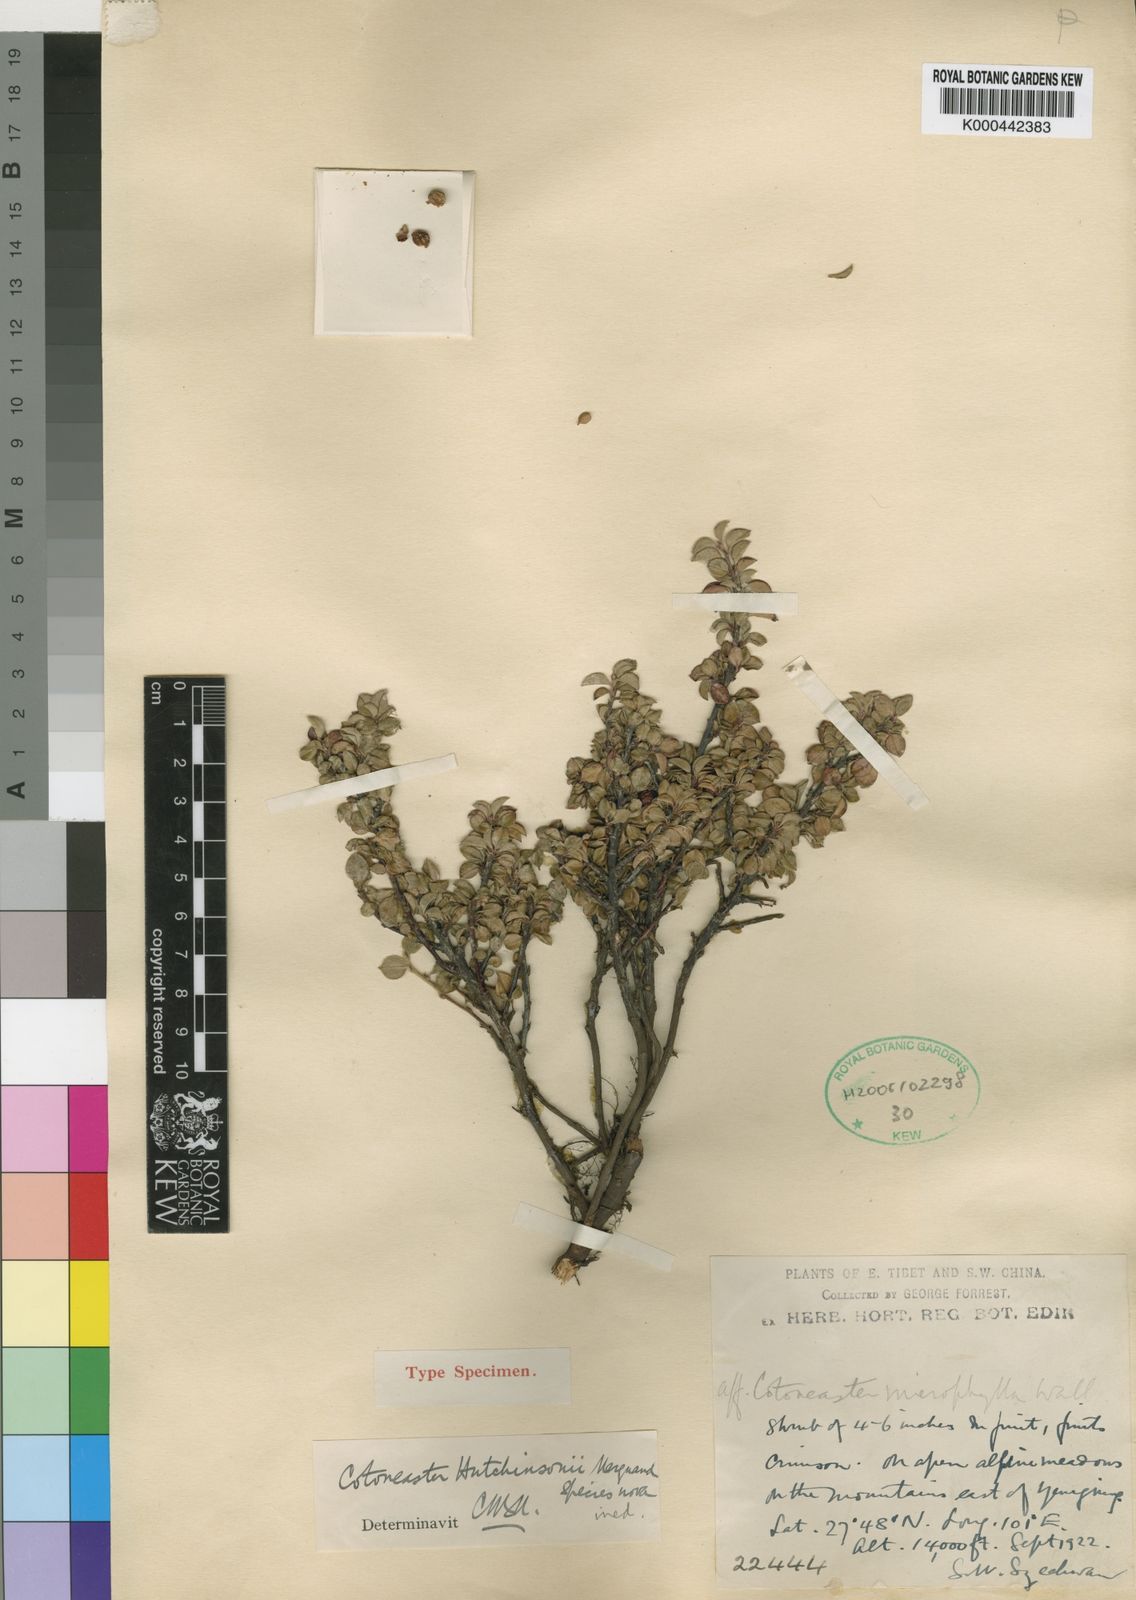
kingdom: Plantae
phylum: Tracheophyta
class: Magnoliopsida
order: Rosales
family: Rosaceae
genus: Cotoneaster
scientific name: Cotoneaster
